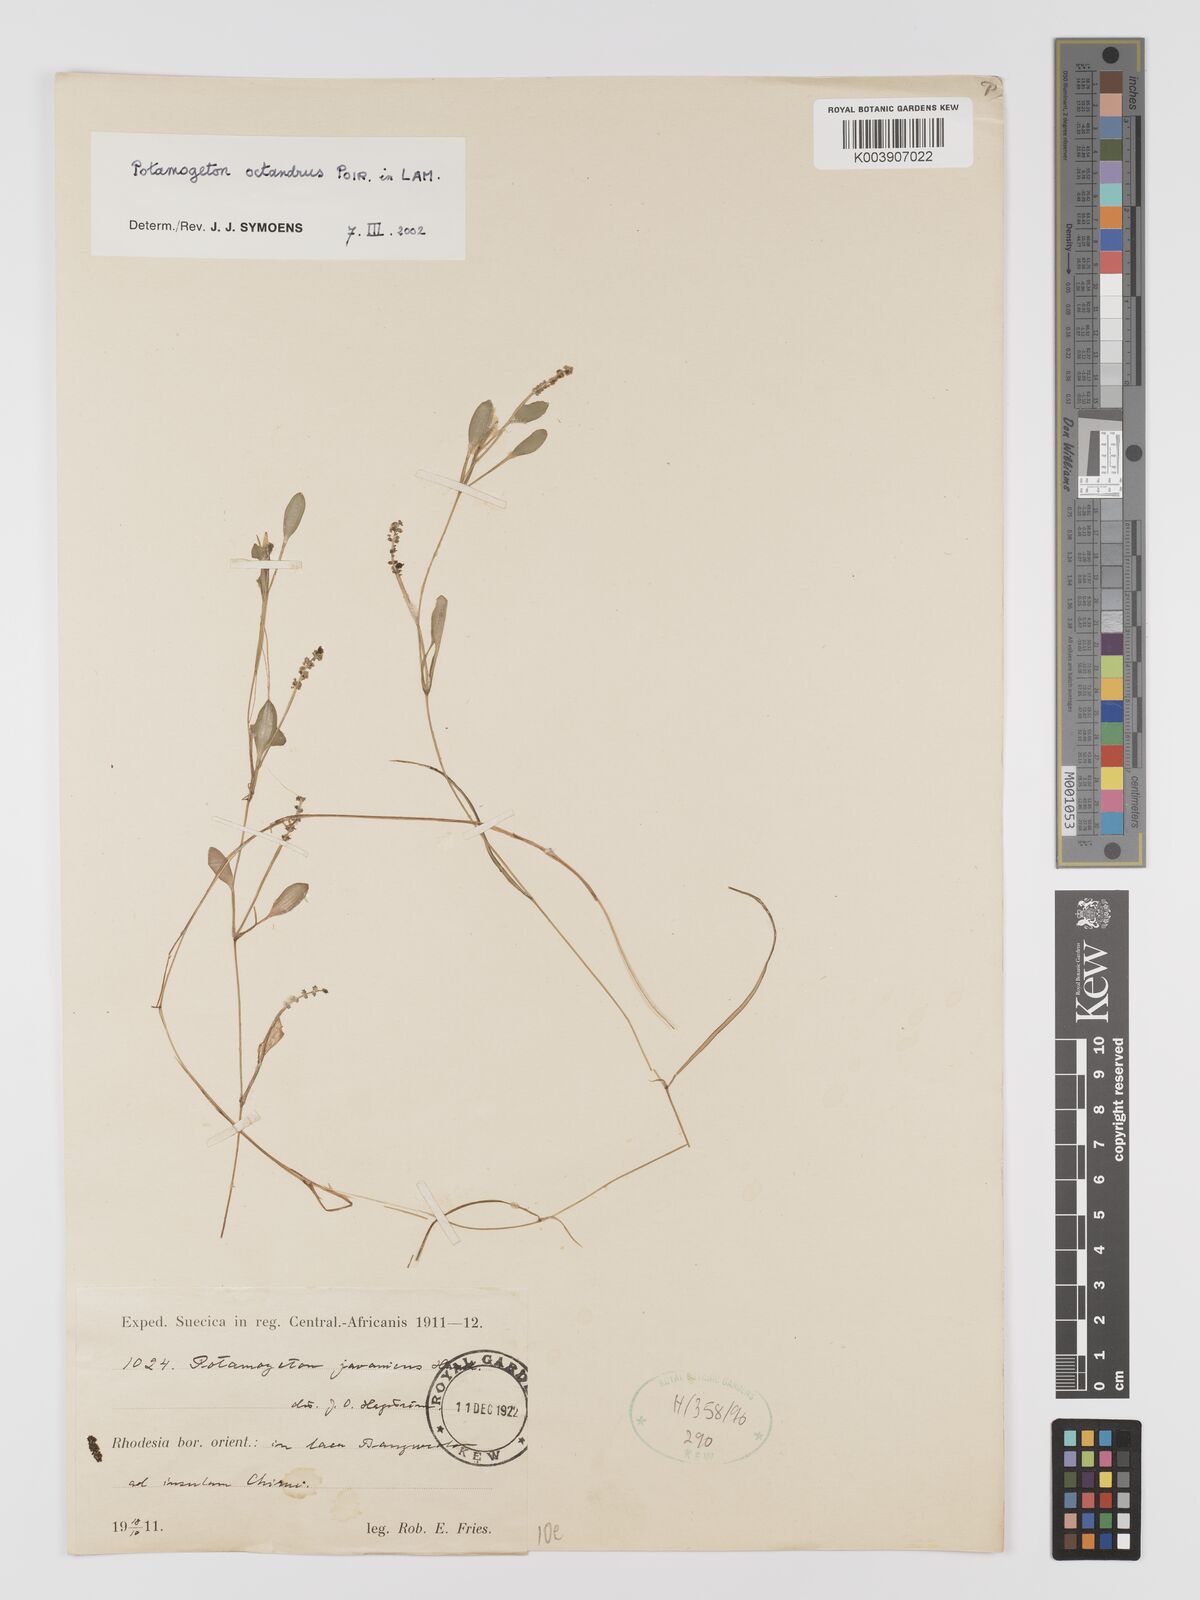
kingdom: Plantae
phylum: Tracheophyta
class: Liliopsida
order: Alismatales
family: Potamogetonaceae
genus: Potamogeton
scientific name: Potamogeton octandrus
